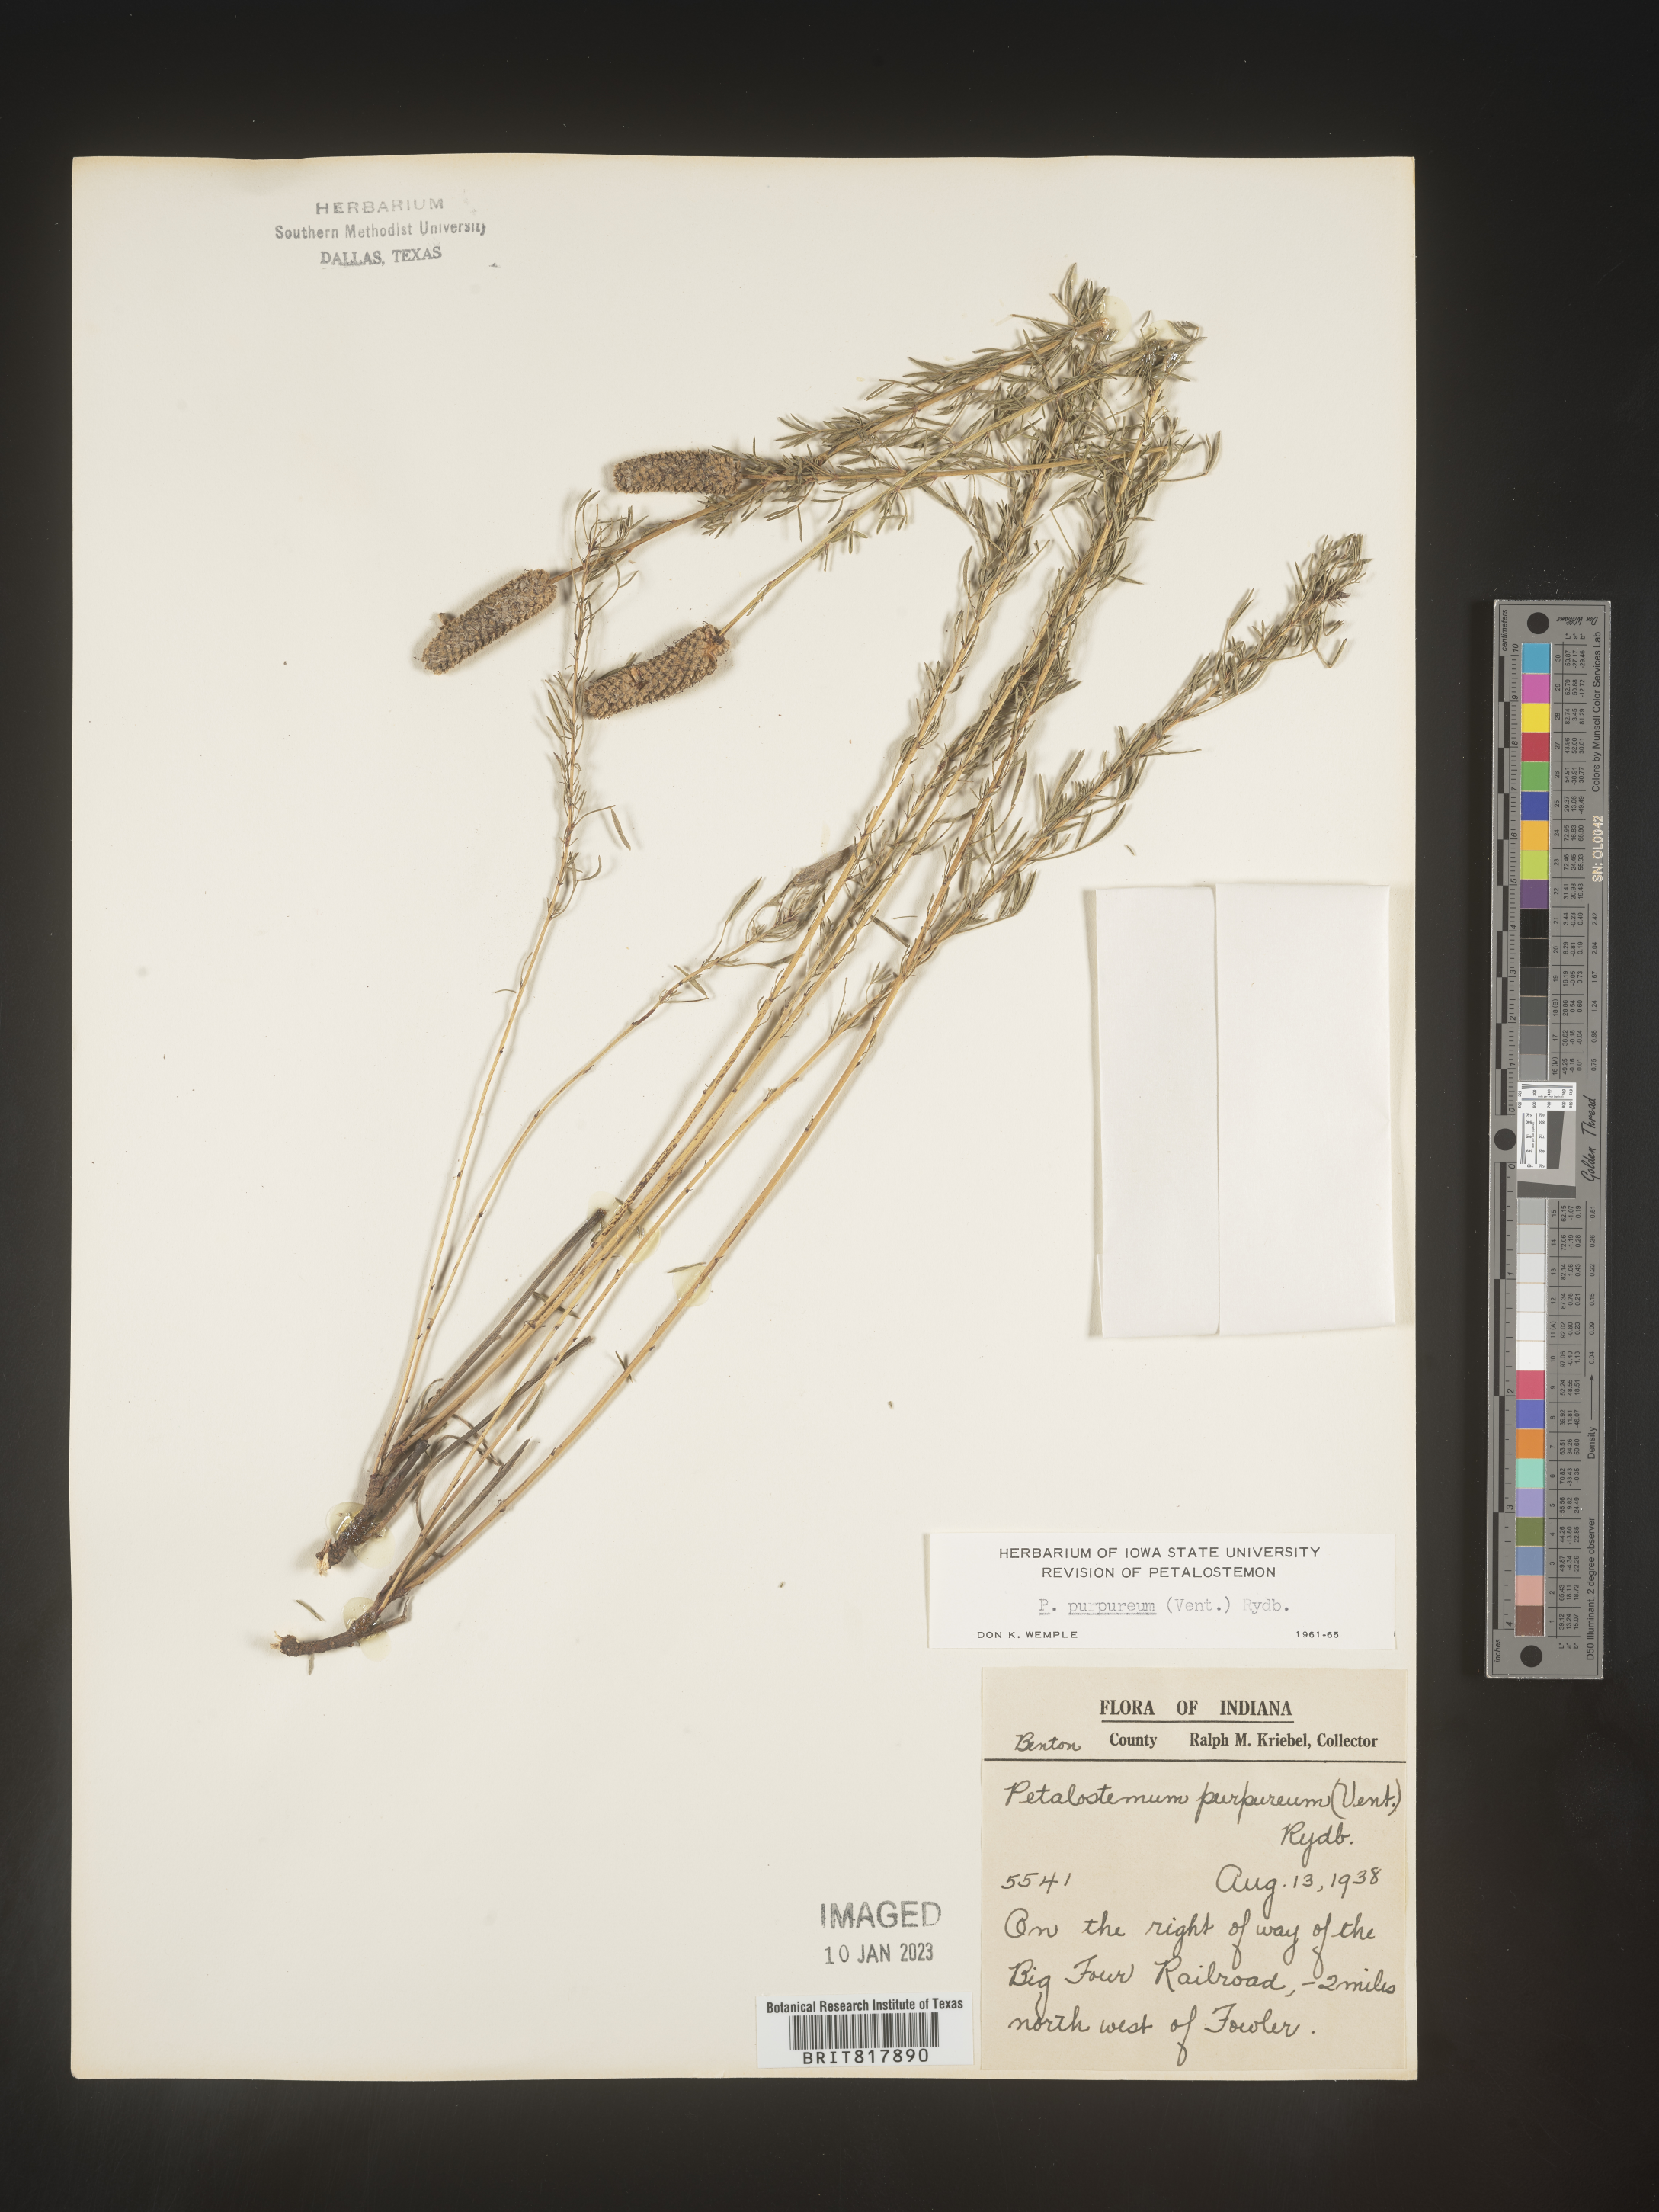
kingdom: Plantae
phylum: Tracheophyta
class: Magnoliopsida
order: Fabales
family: Fabaceae
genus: Dalea
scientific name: Dalea purpurea
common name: Purple prairie-clover
